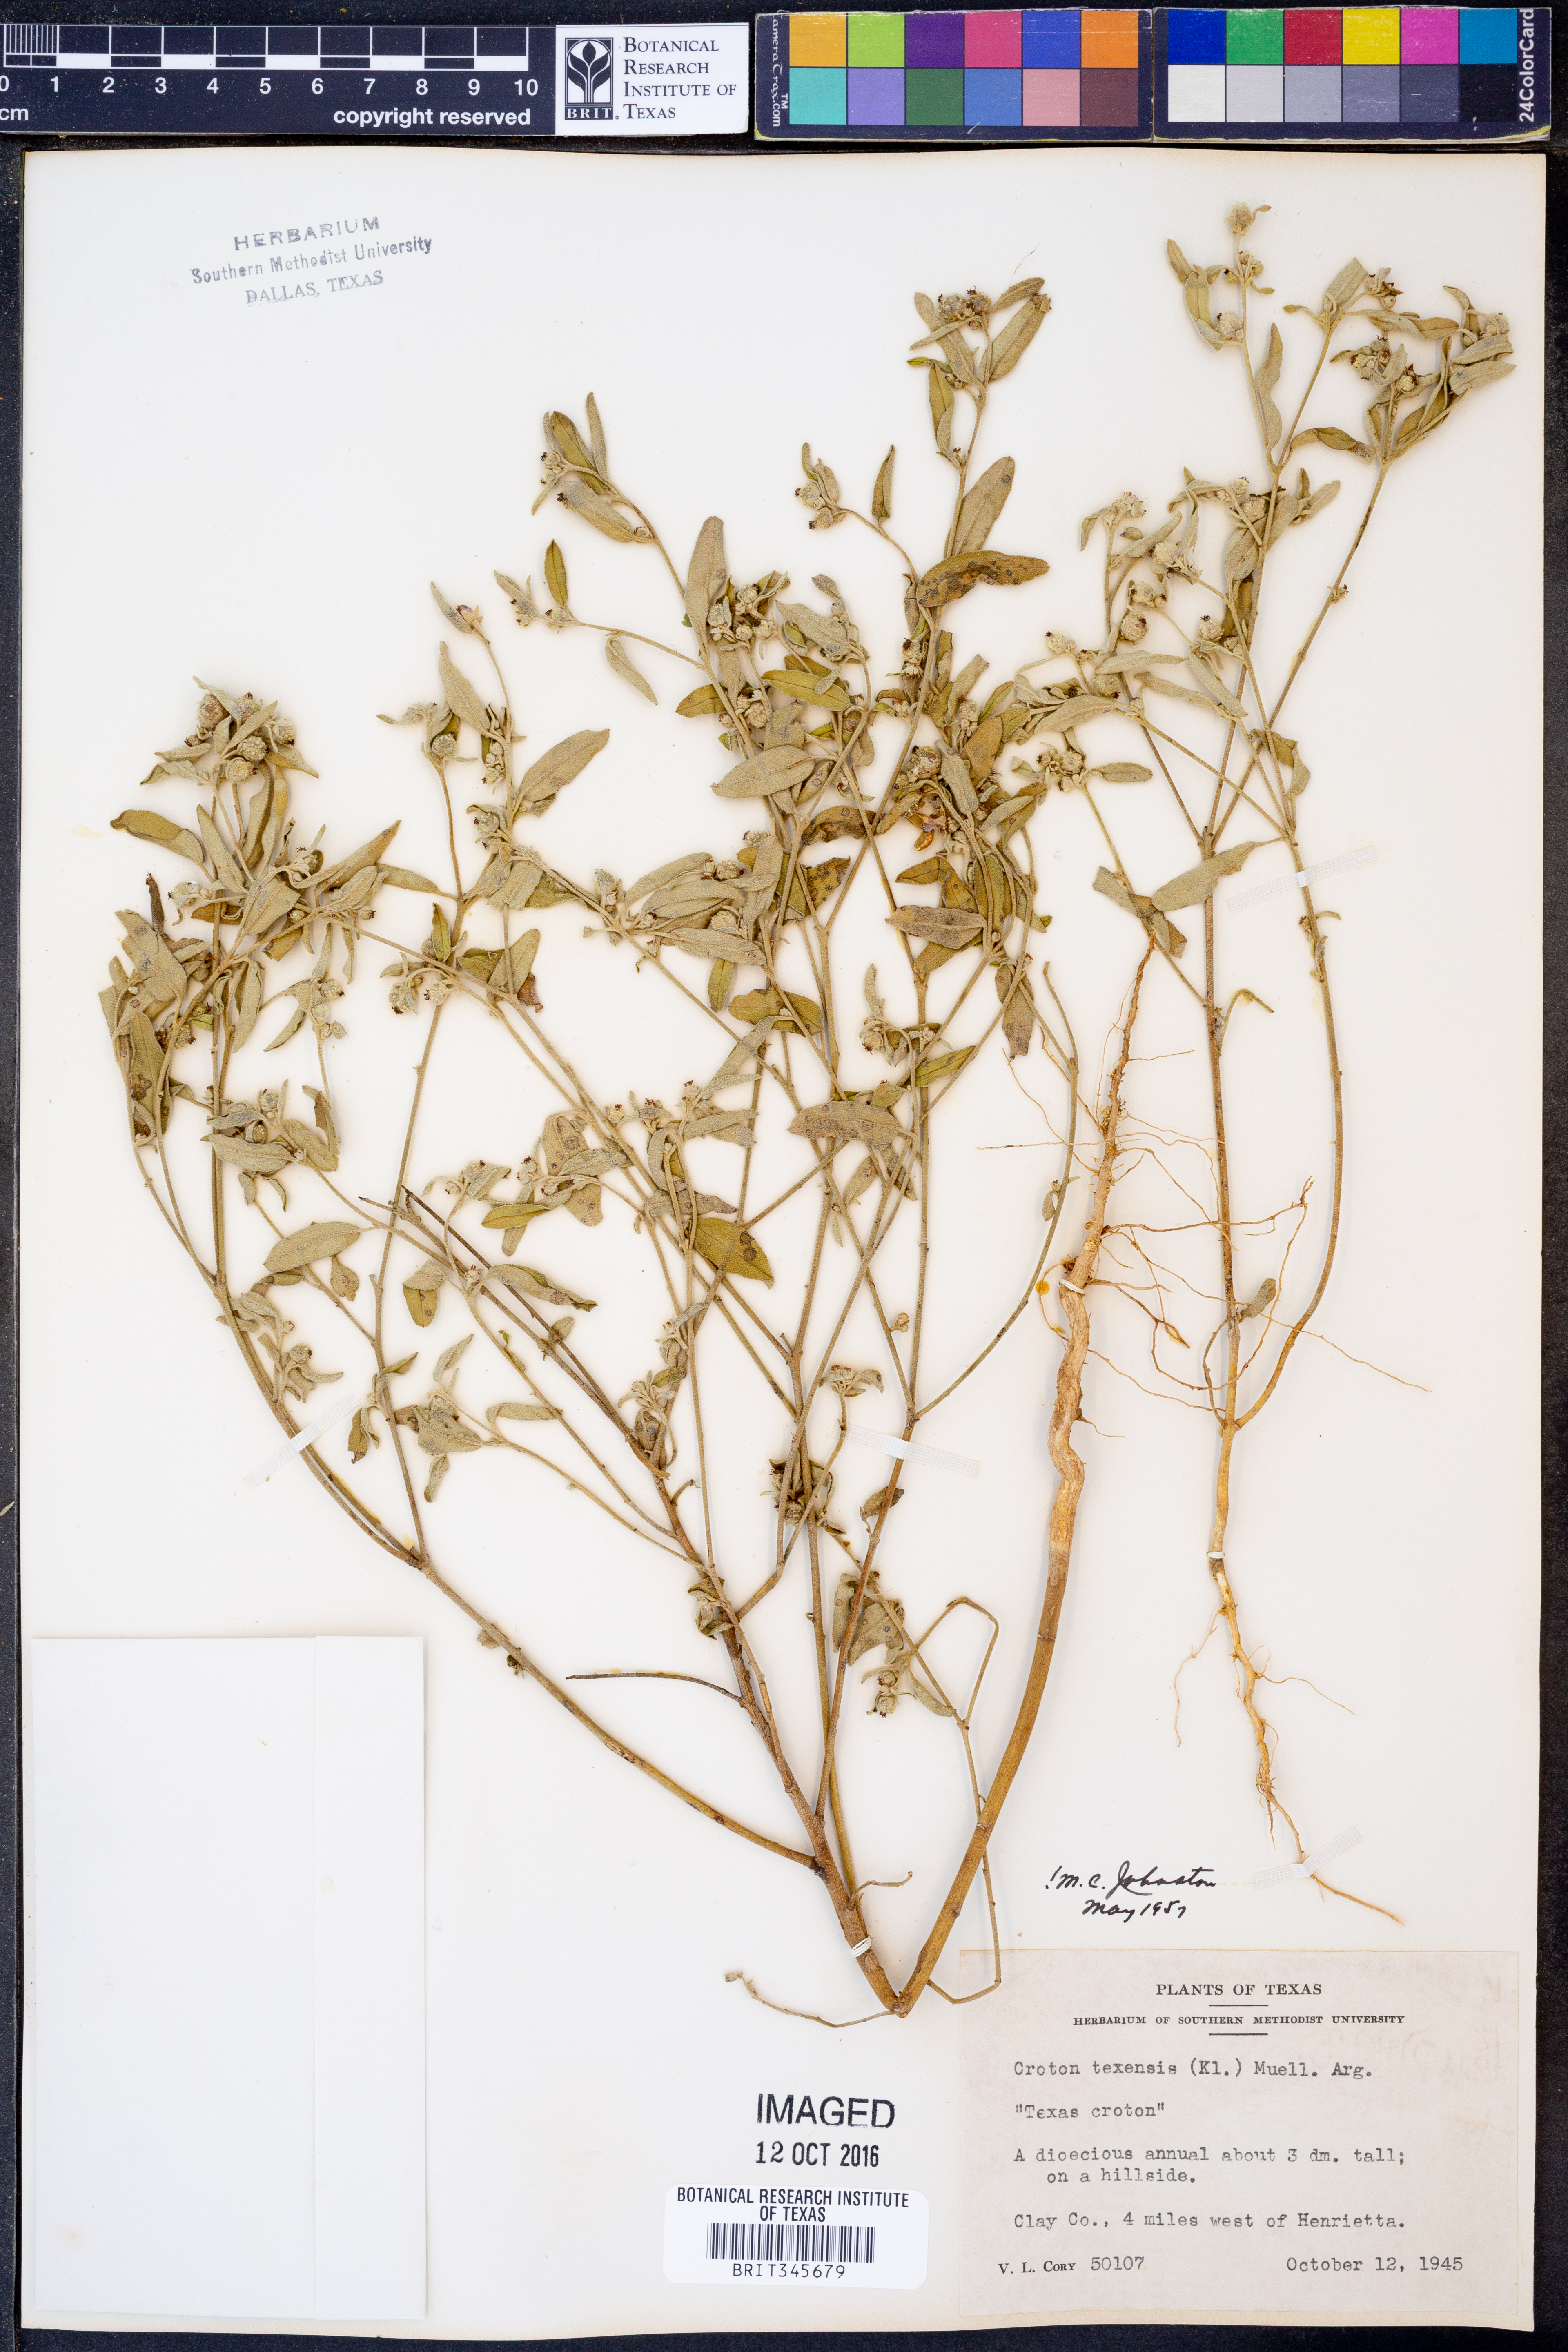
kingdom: Plantae
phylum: Tracheophyta
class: Magnoliopsida
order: Malpighiales
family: Euphorbiaceae
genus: Croton
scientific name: Croton texensis
